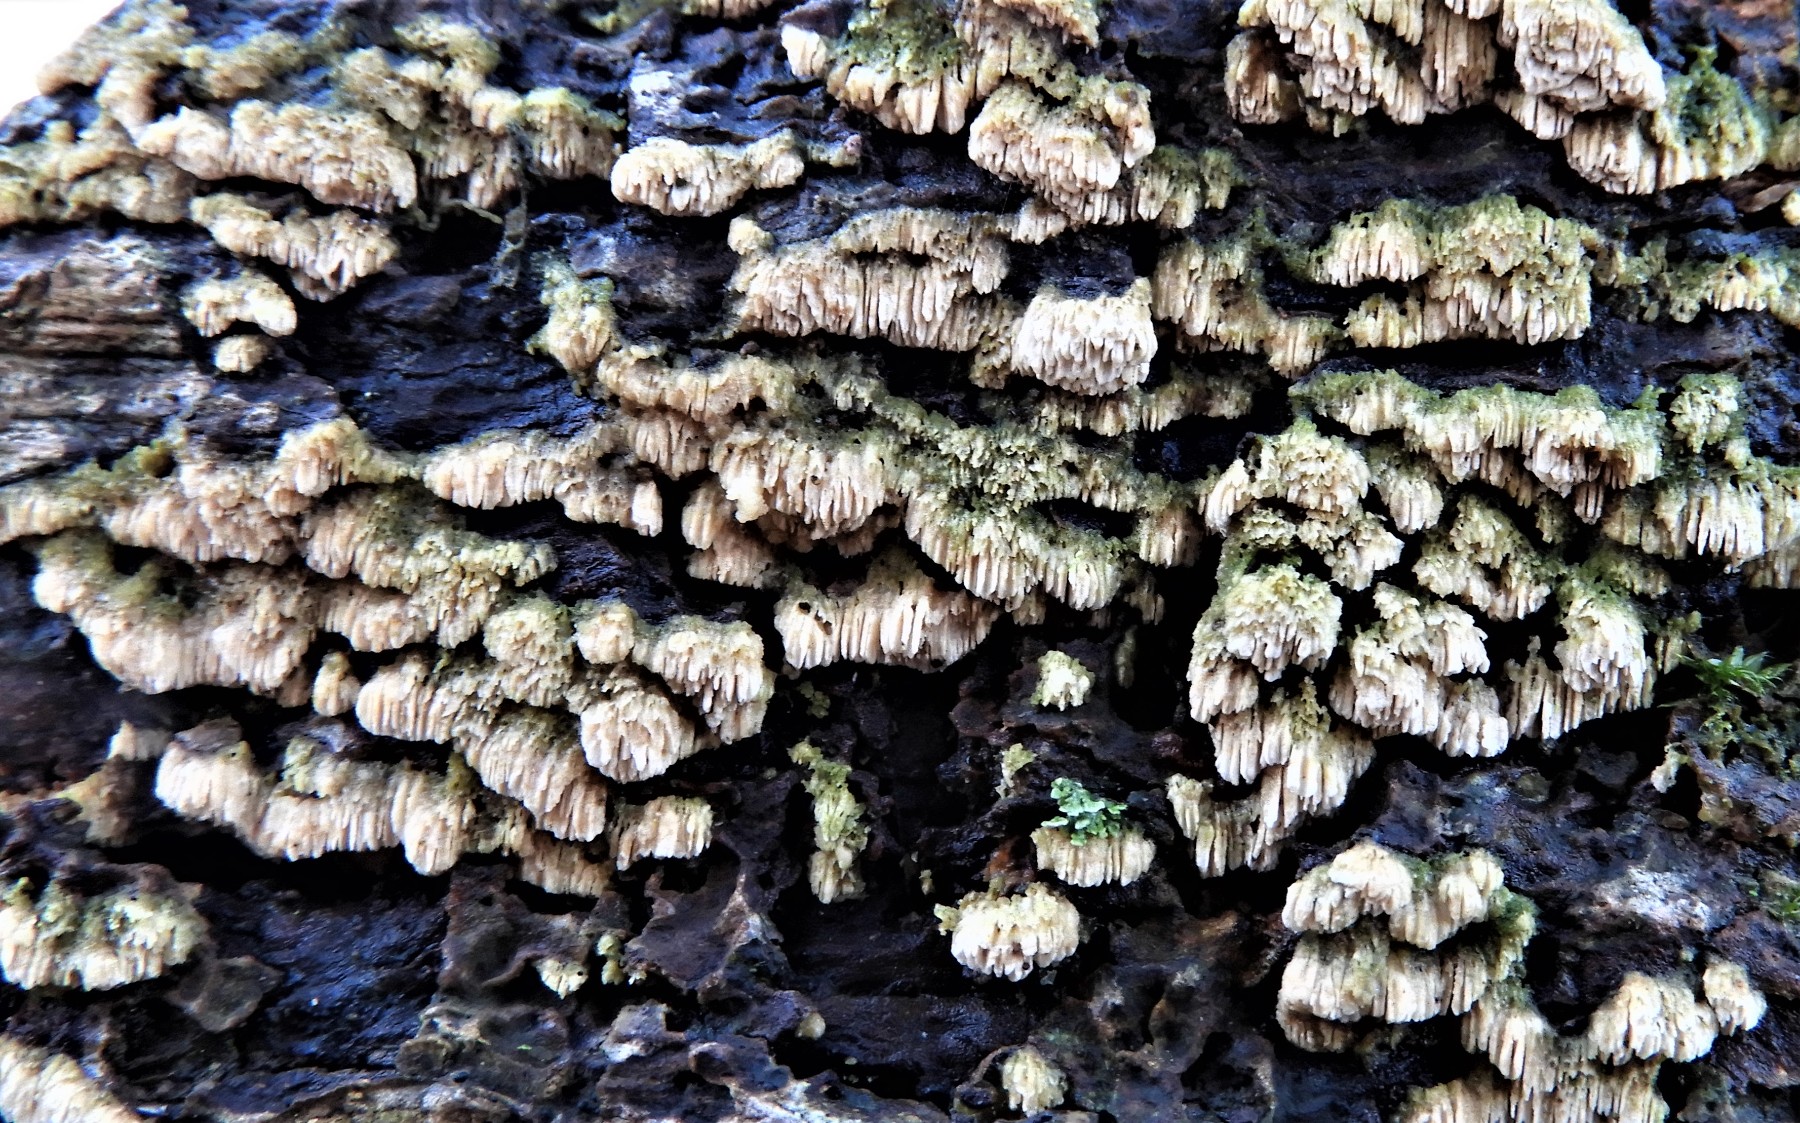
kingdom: Fungi
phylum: Basidiomycota
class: Agaricomycetes
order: Hymenochaetales
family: Schizoporaceae
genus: Schizopora
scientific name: Schizopora paradoxa
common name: hvid tandsvamp
